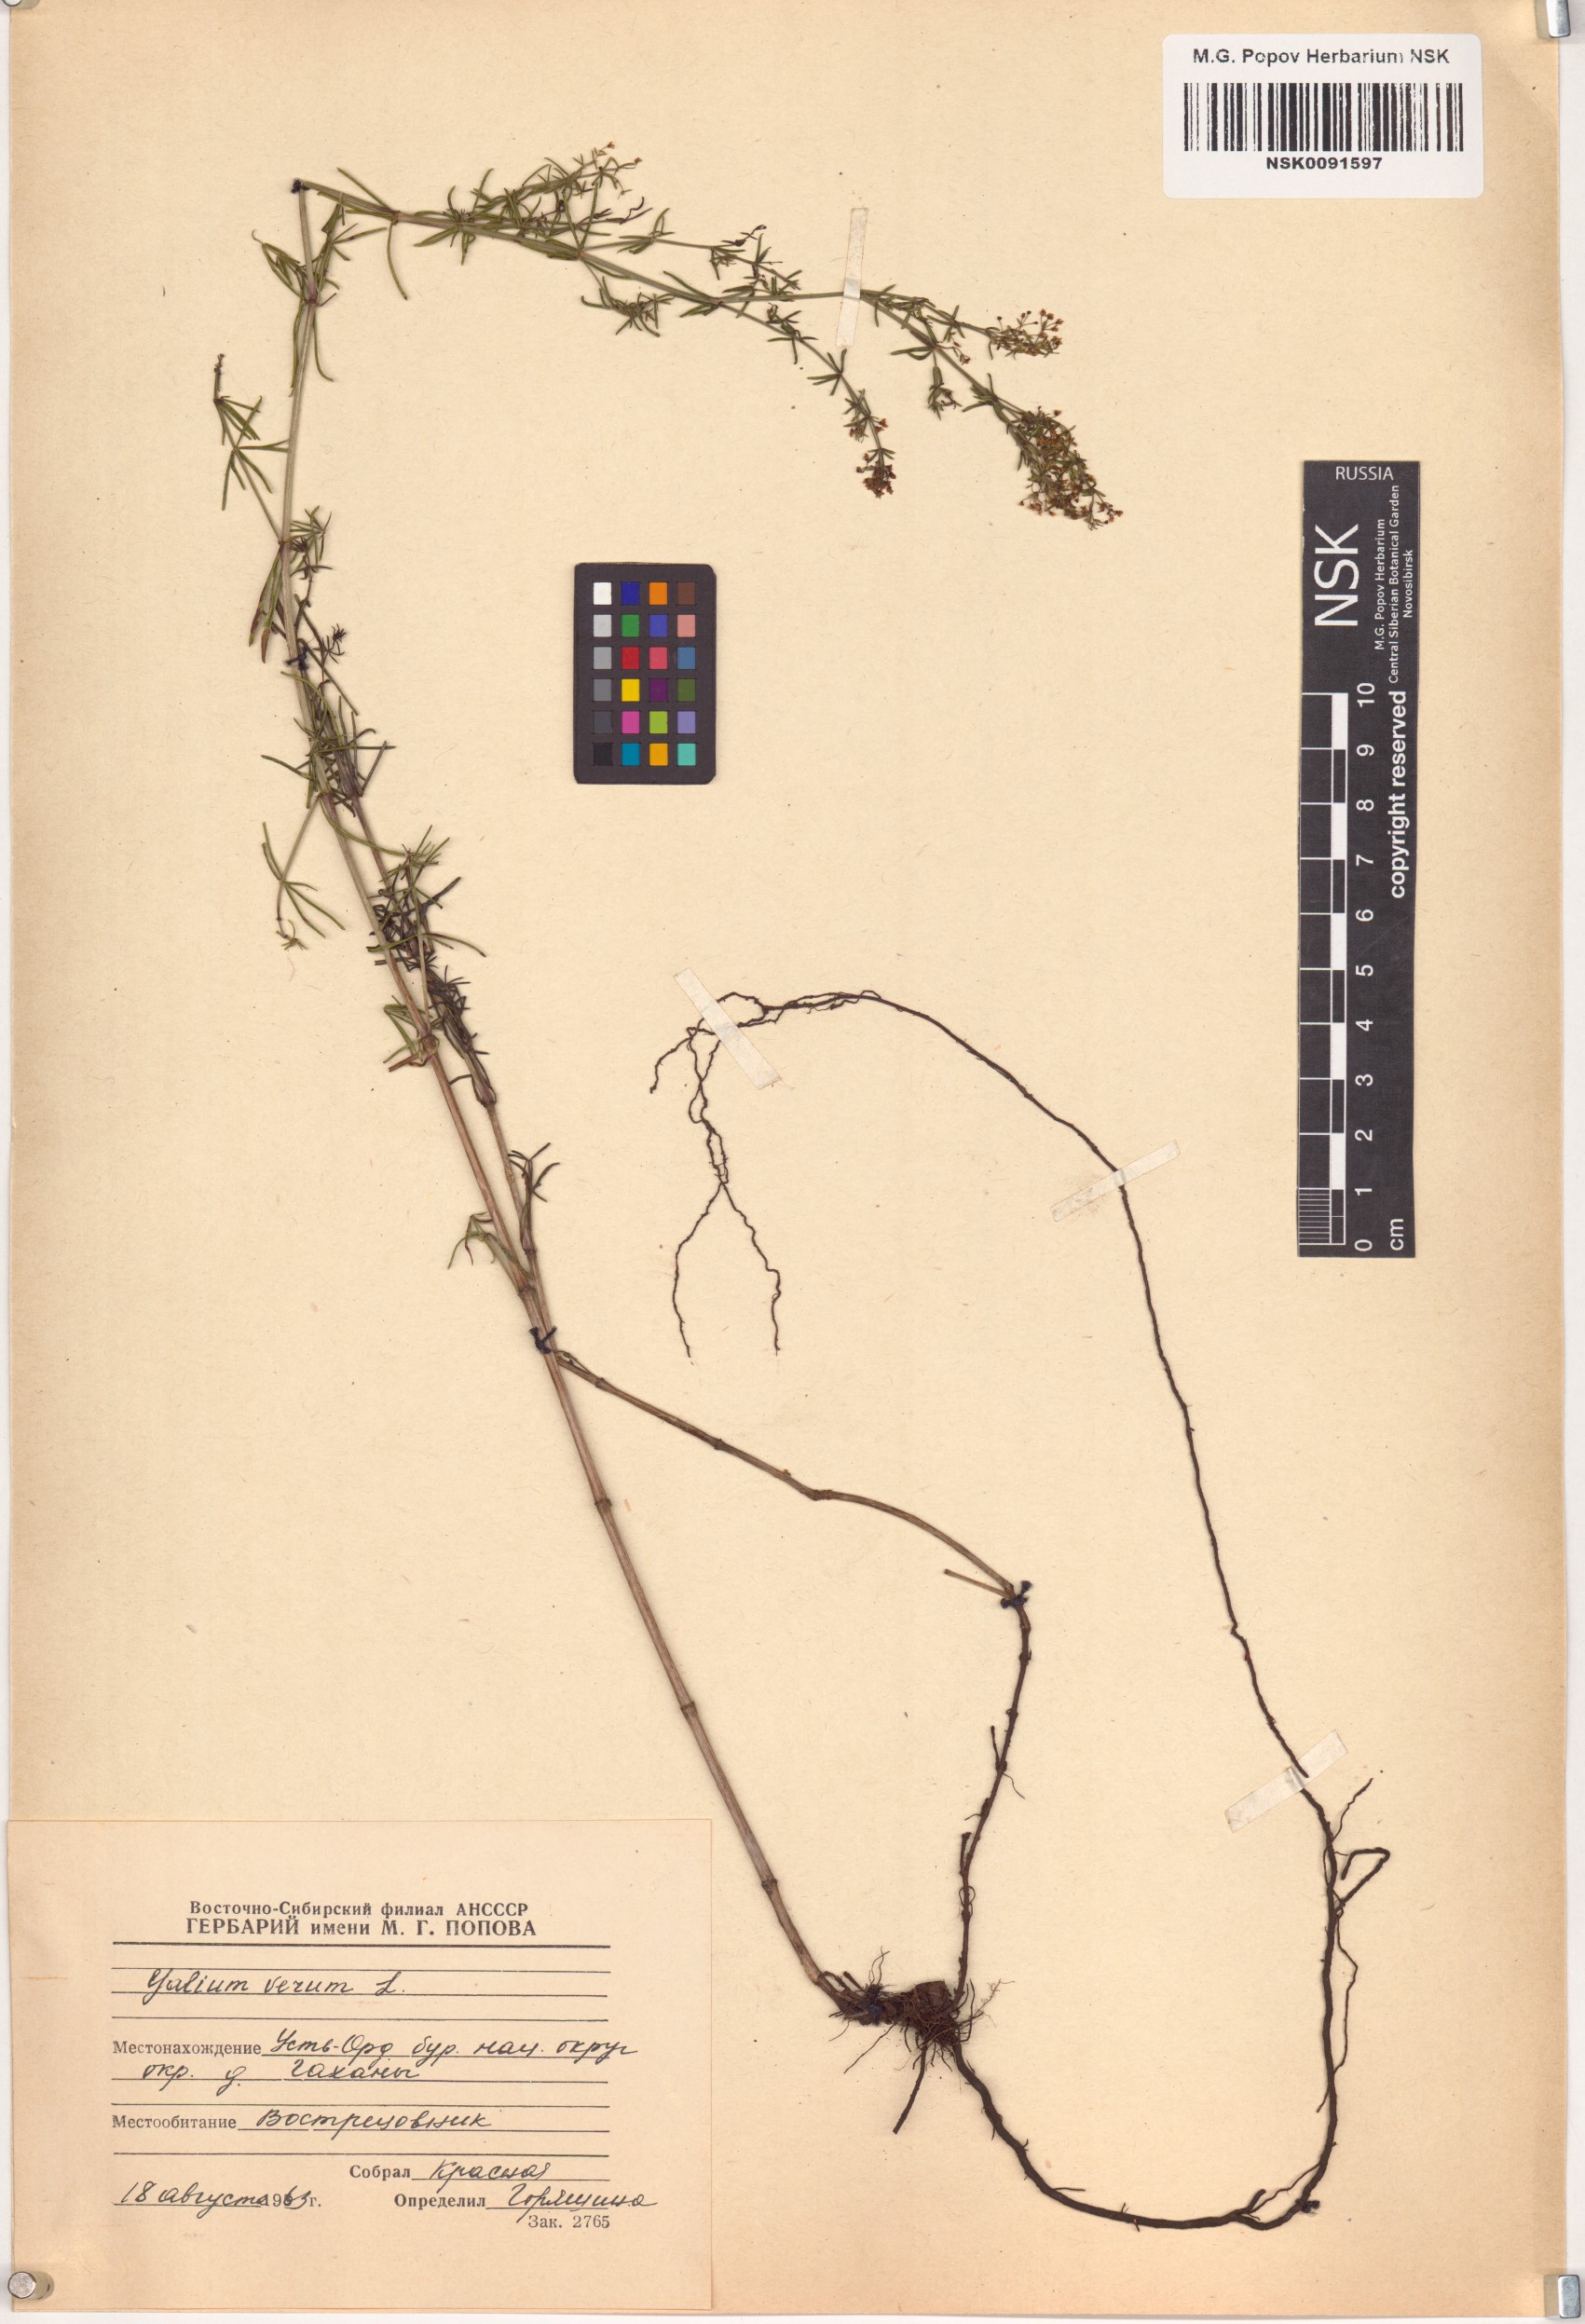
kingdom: Plantae
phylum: Tracheophyta
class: Magnoliopsida
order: Gentianales
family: Rubiaceae
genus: Galium
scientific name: Galium verum
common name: Lady's bedstraw
